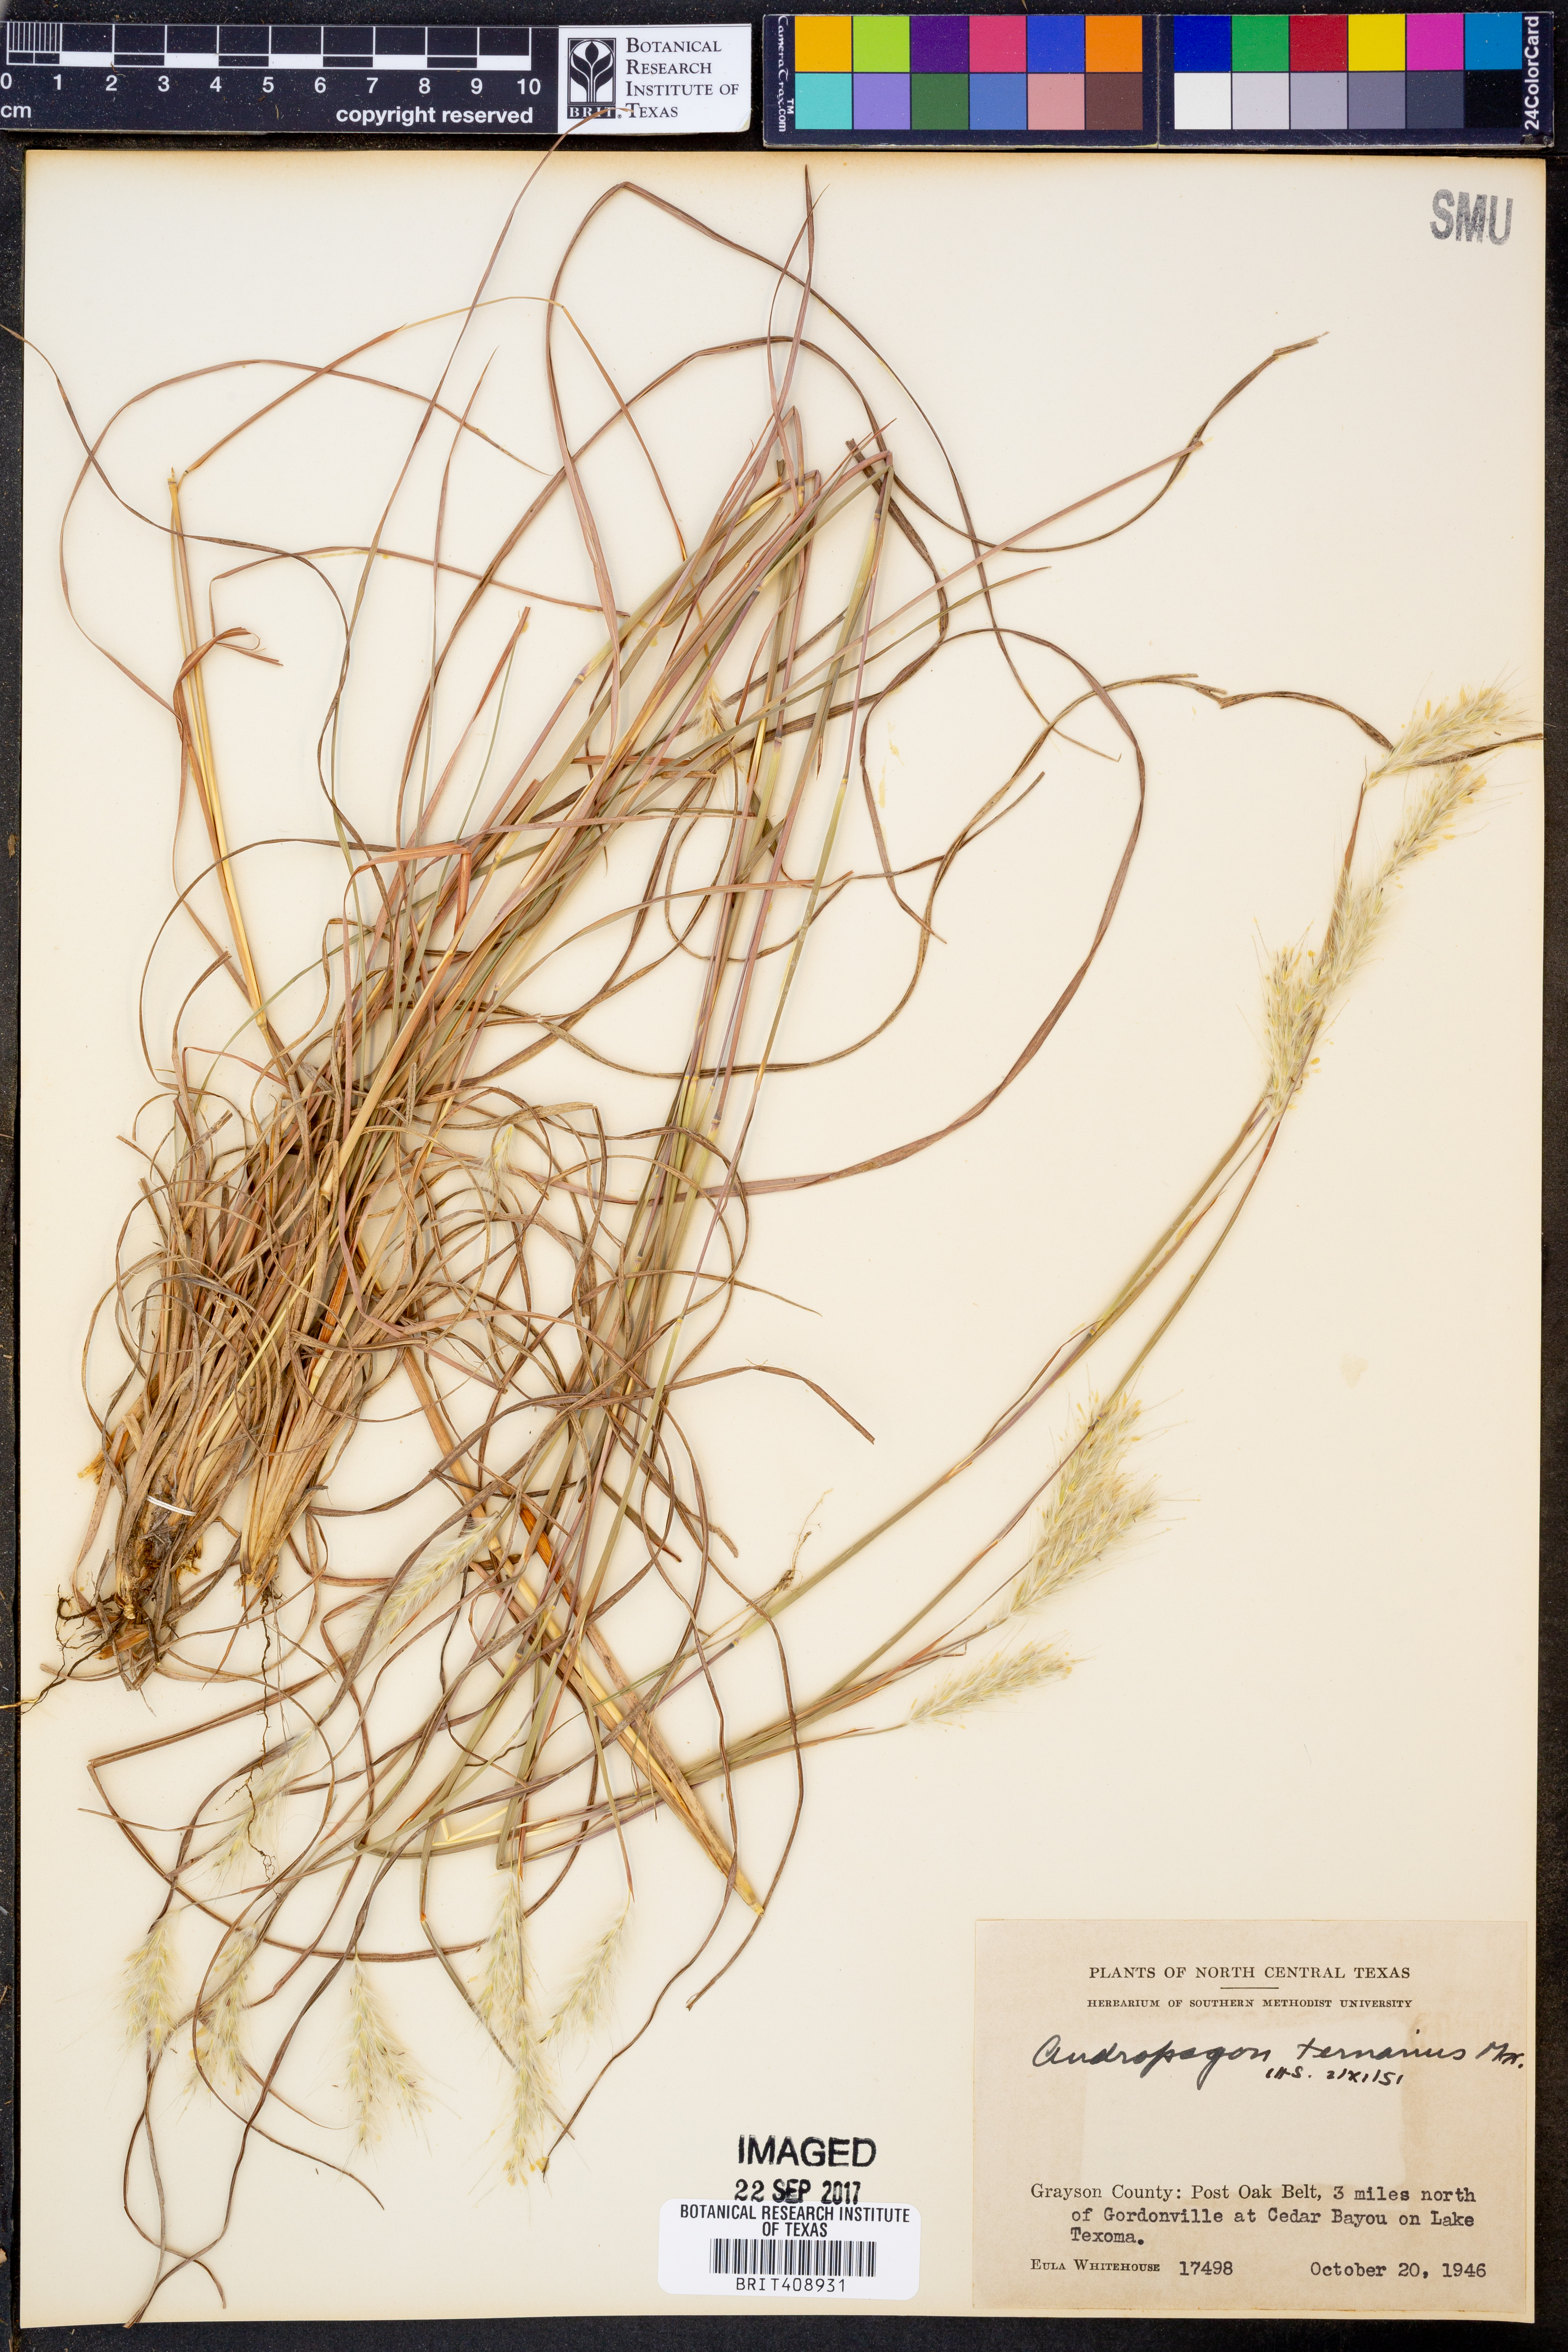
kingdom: Plantae
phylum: Tracheophyta
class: Liliopsida
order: Poales
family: Poaceae
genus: Andropogon
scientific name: Andropogon ternarius
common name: Split bluestem
